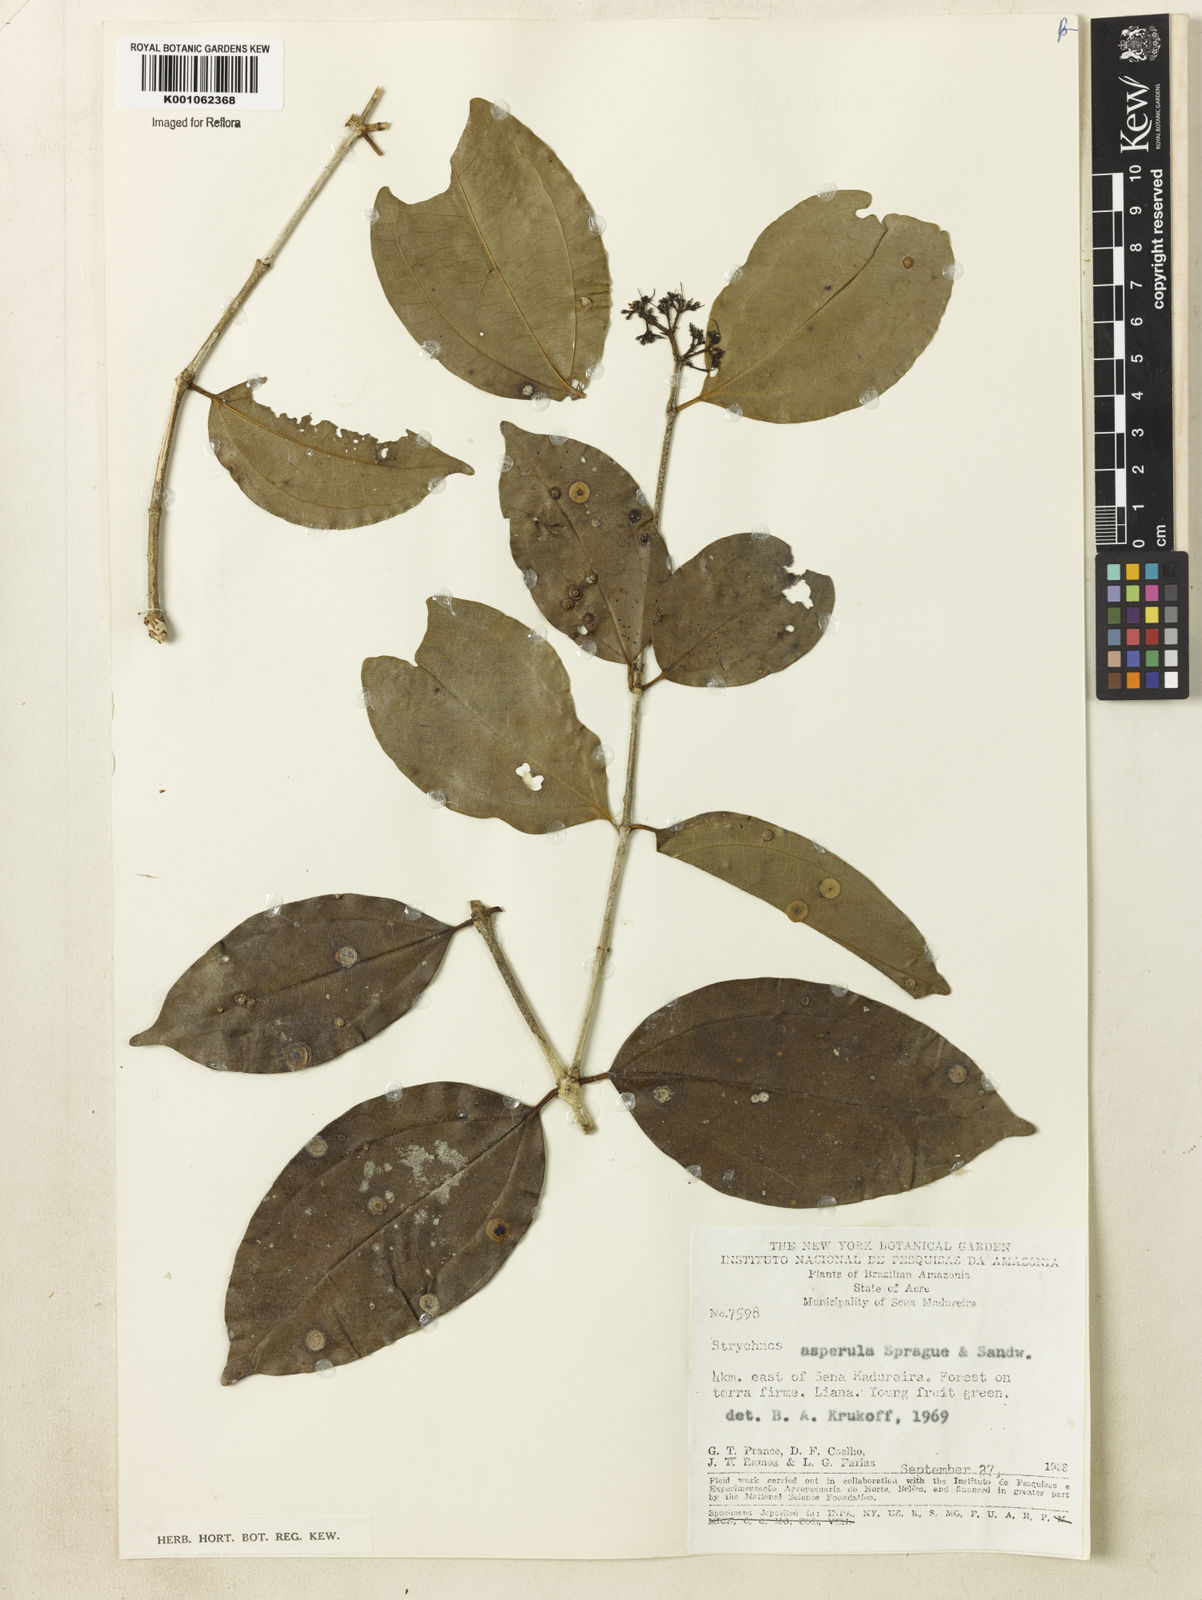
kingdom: Plantae
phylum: Tracheophyta
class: Magnoliopsida
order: Gentianales
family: Loganiaceae
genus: Strychnos
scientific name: Strychnos asperula
